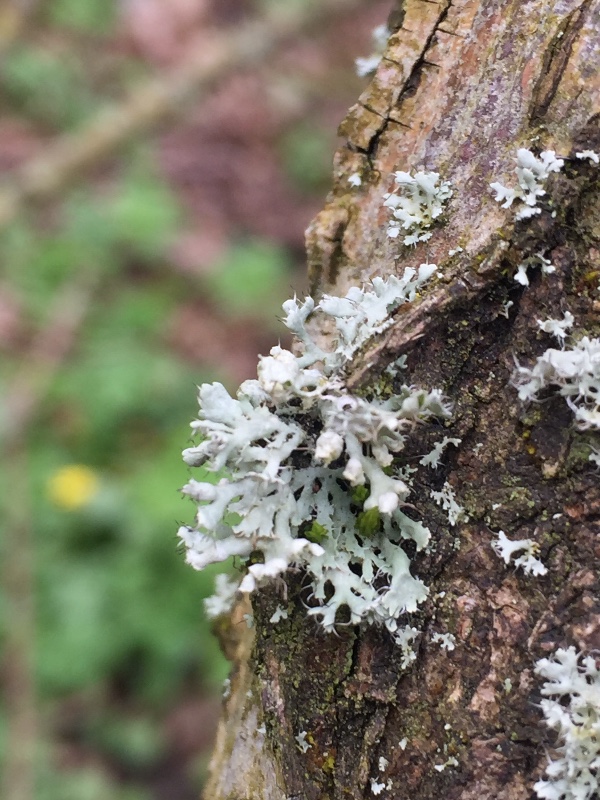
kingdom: Fungi
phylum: Ascomycota
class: Lecanoromycetes
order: Caliciales
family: Physciaceae
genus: Physcia
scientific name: Physcia adscendens
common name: hætte-rosetlav
